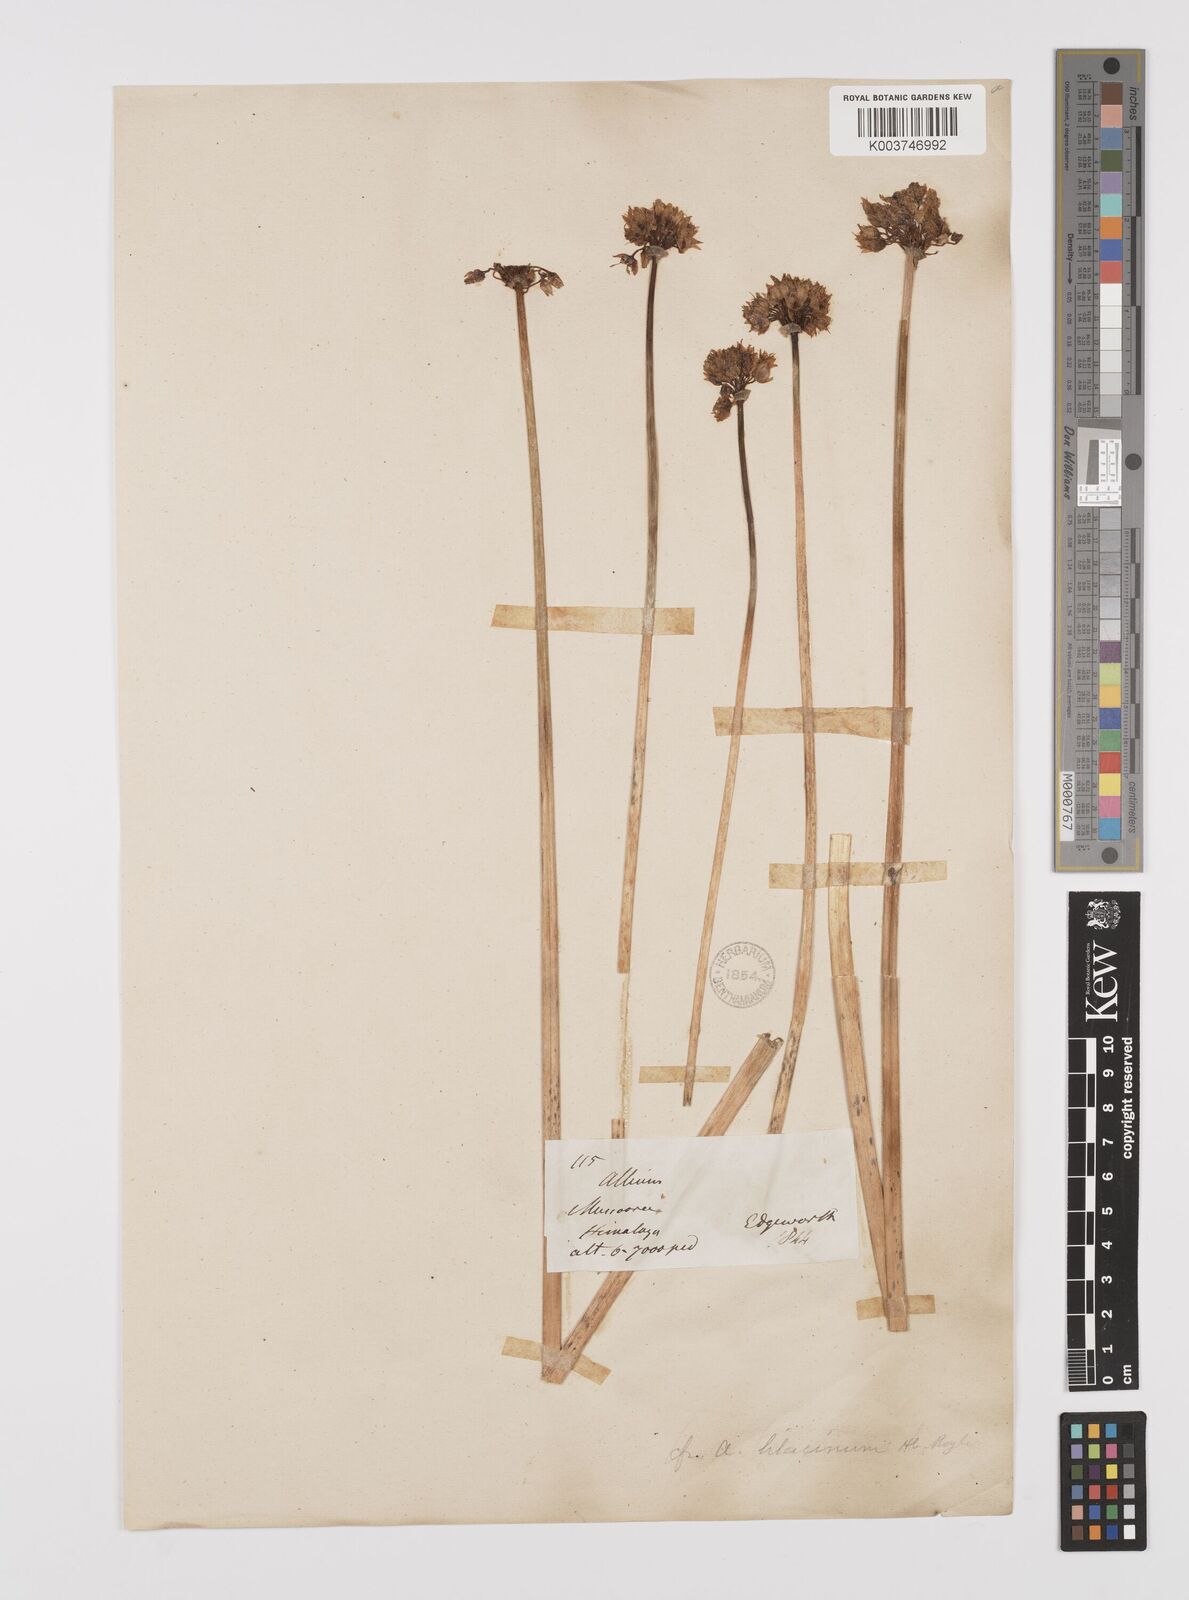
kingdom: Plantae
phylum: Tracheophyta
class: Liliopsida
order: Asparagales
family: Amaryllidaceae
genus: Allium
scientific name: Allium roylei
